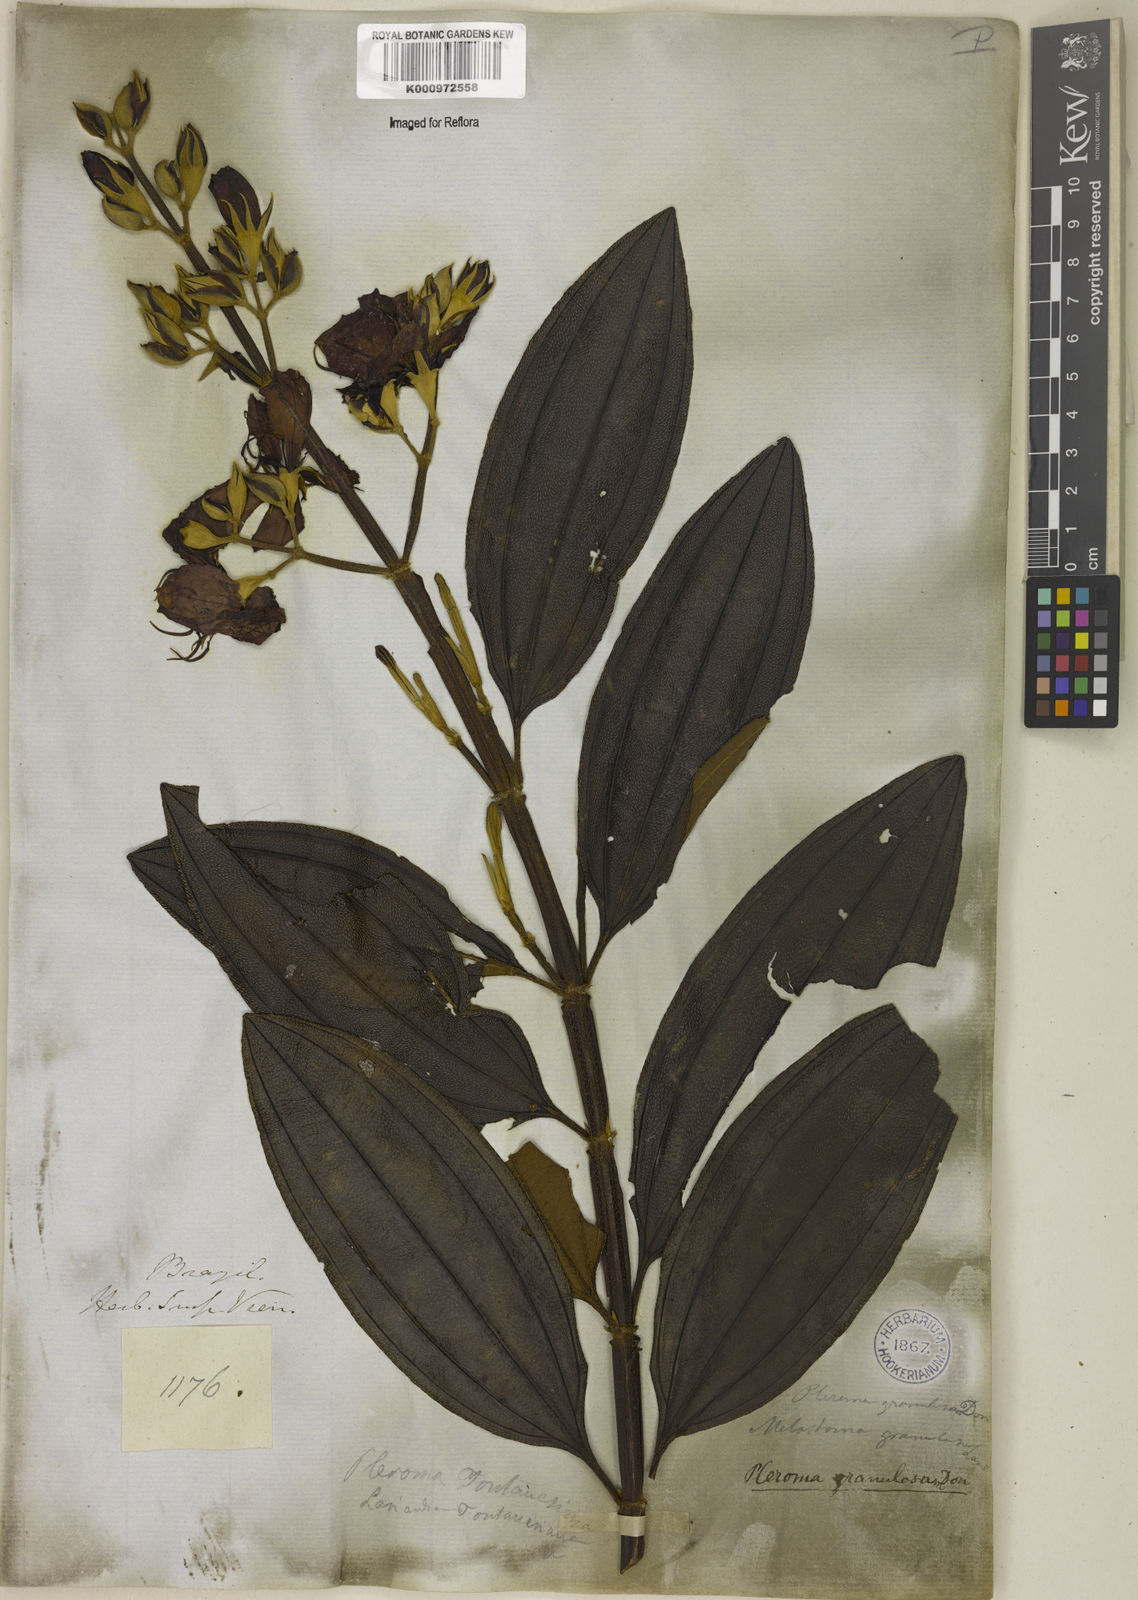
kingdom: Plantae
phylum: Tracheophyta
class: Magnoliopsida
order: Myrtales
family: Melastomataceae
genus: Pleroma
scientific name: Pleroma granulosum
